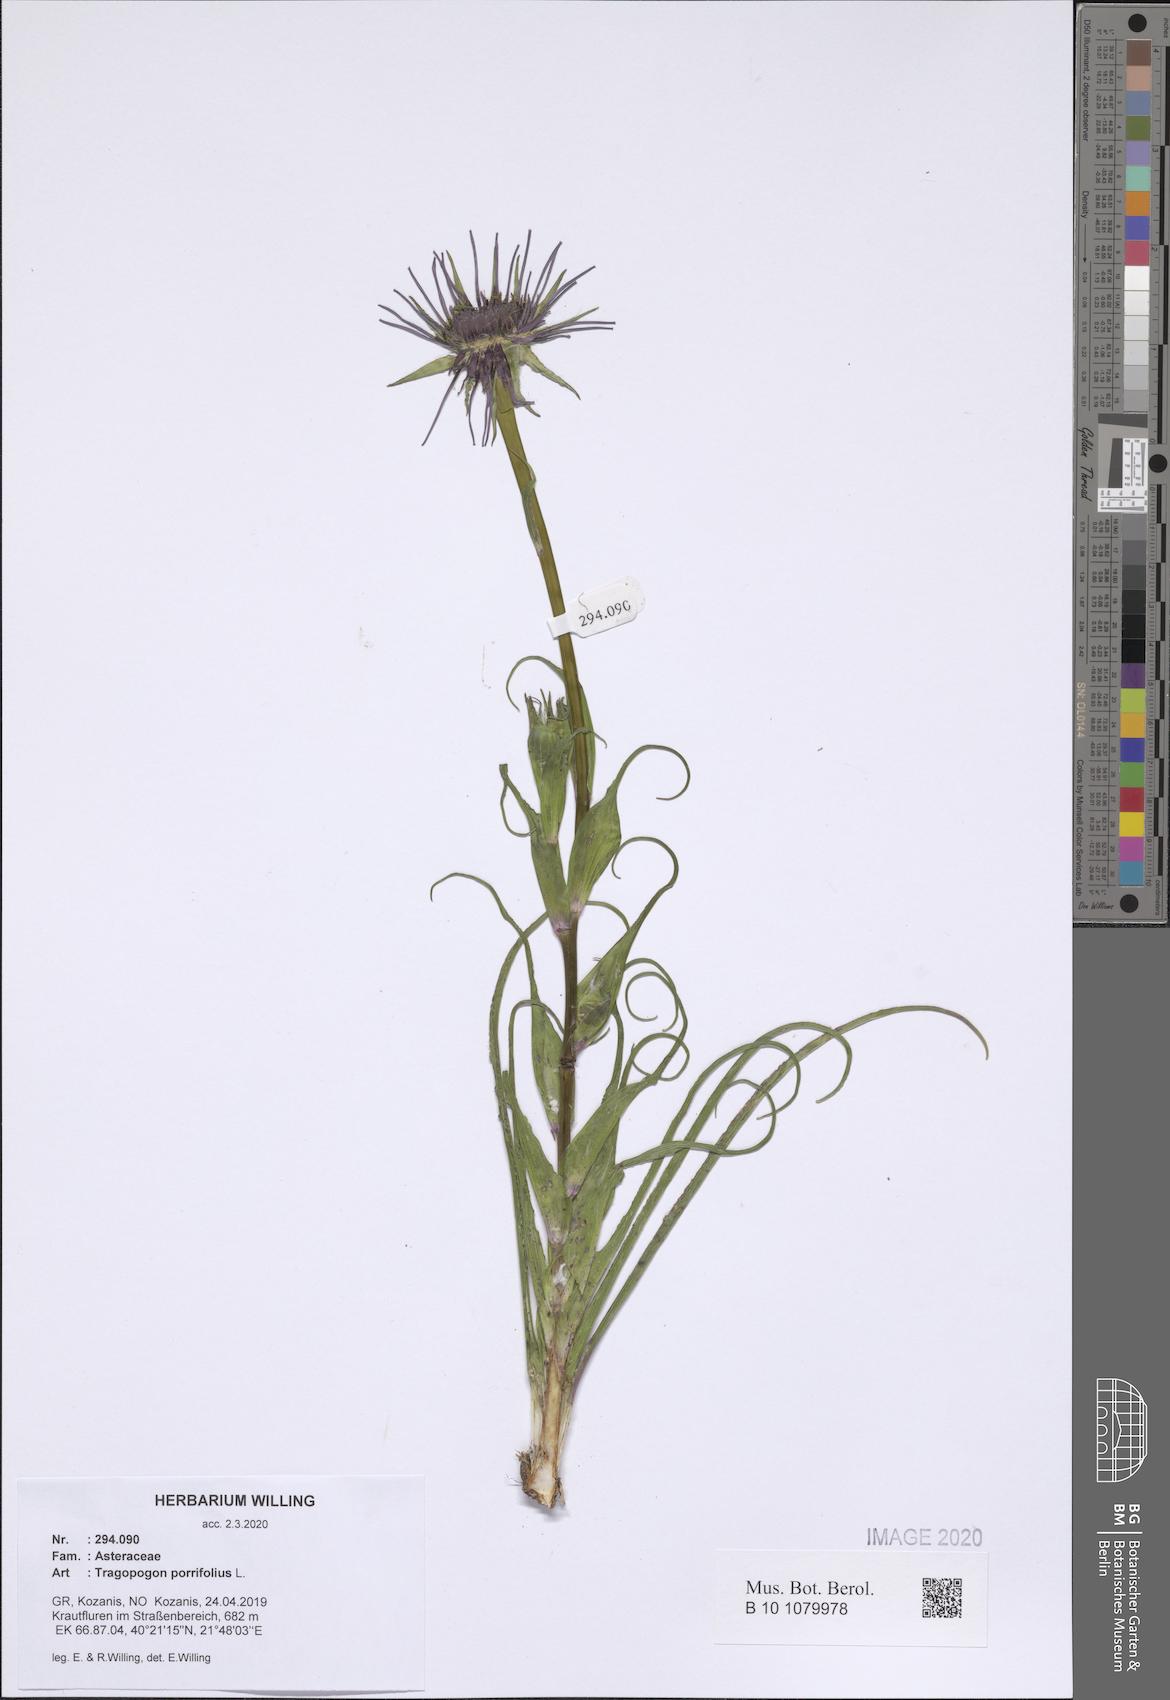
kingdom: Plantae
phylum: Tracheophyta
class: Magnoliopsida
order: Asterales
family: Asteraceae
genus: Tragopogon
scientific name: Tragopogon porrifolius
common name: Salsify
